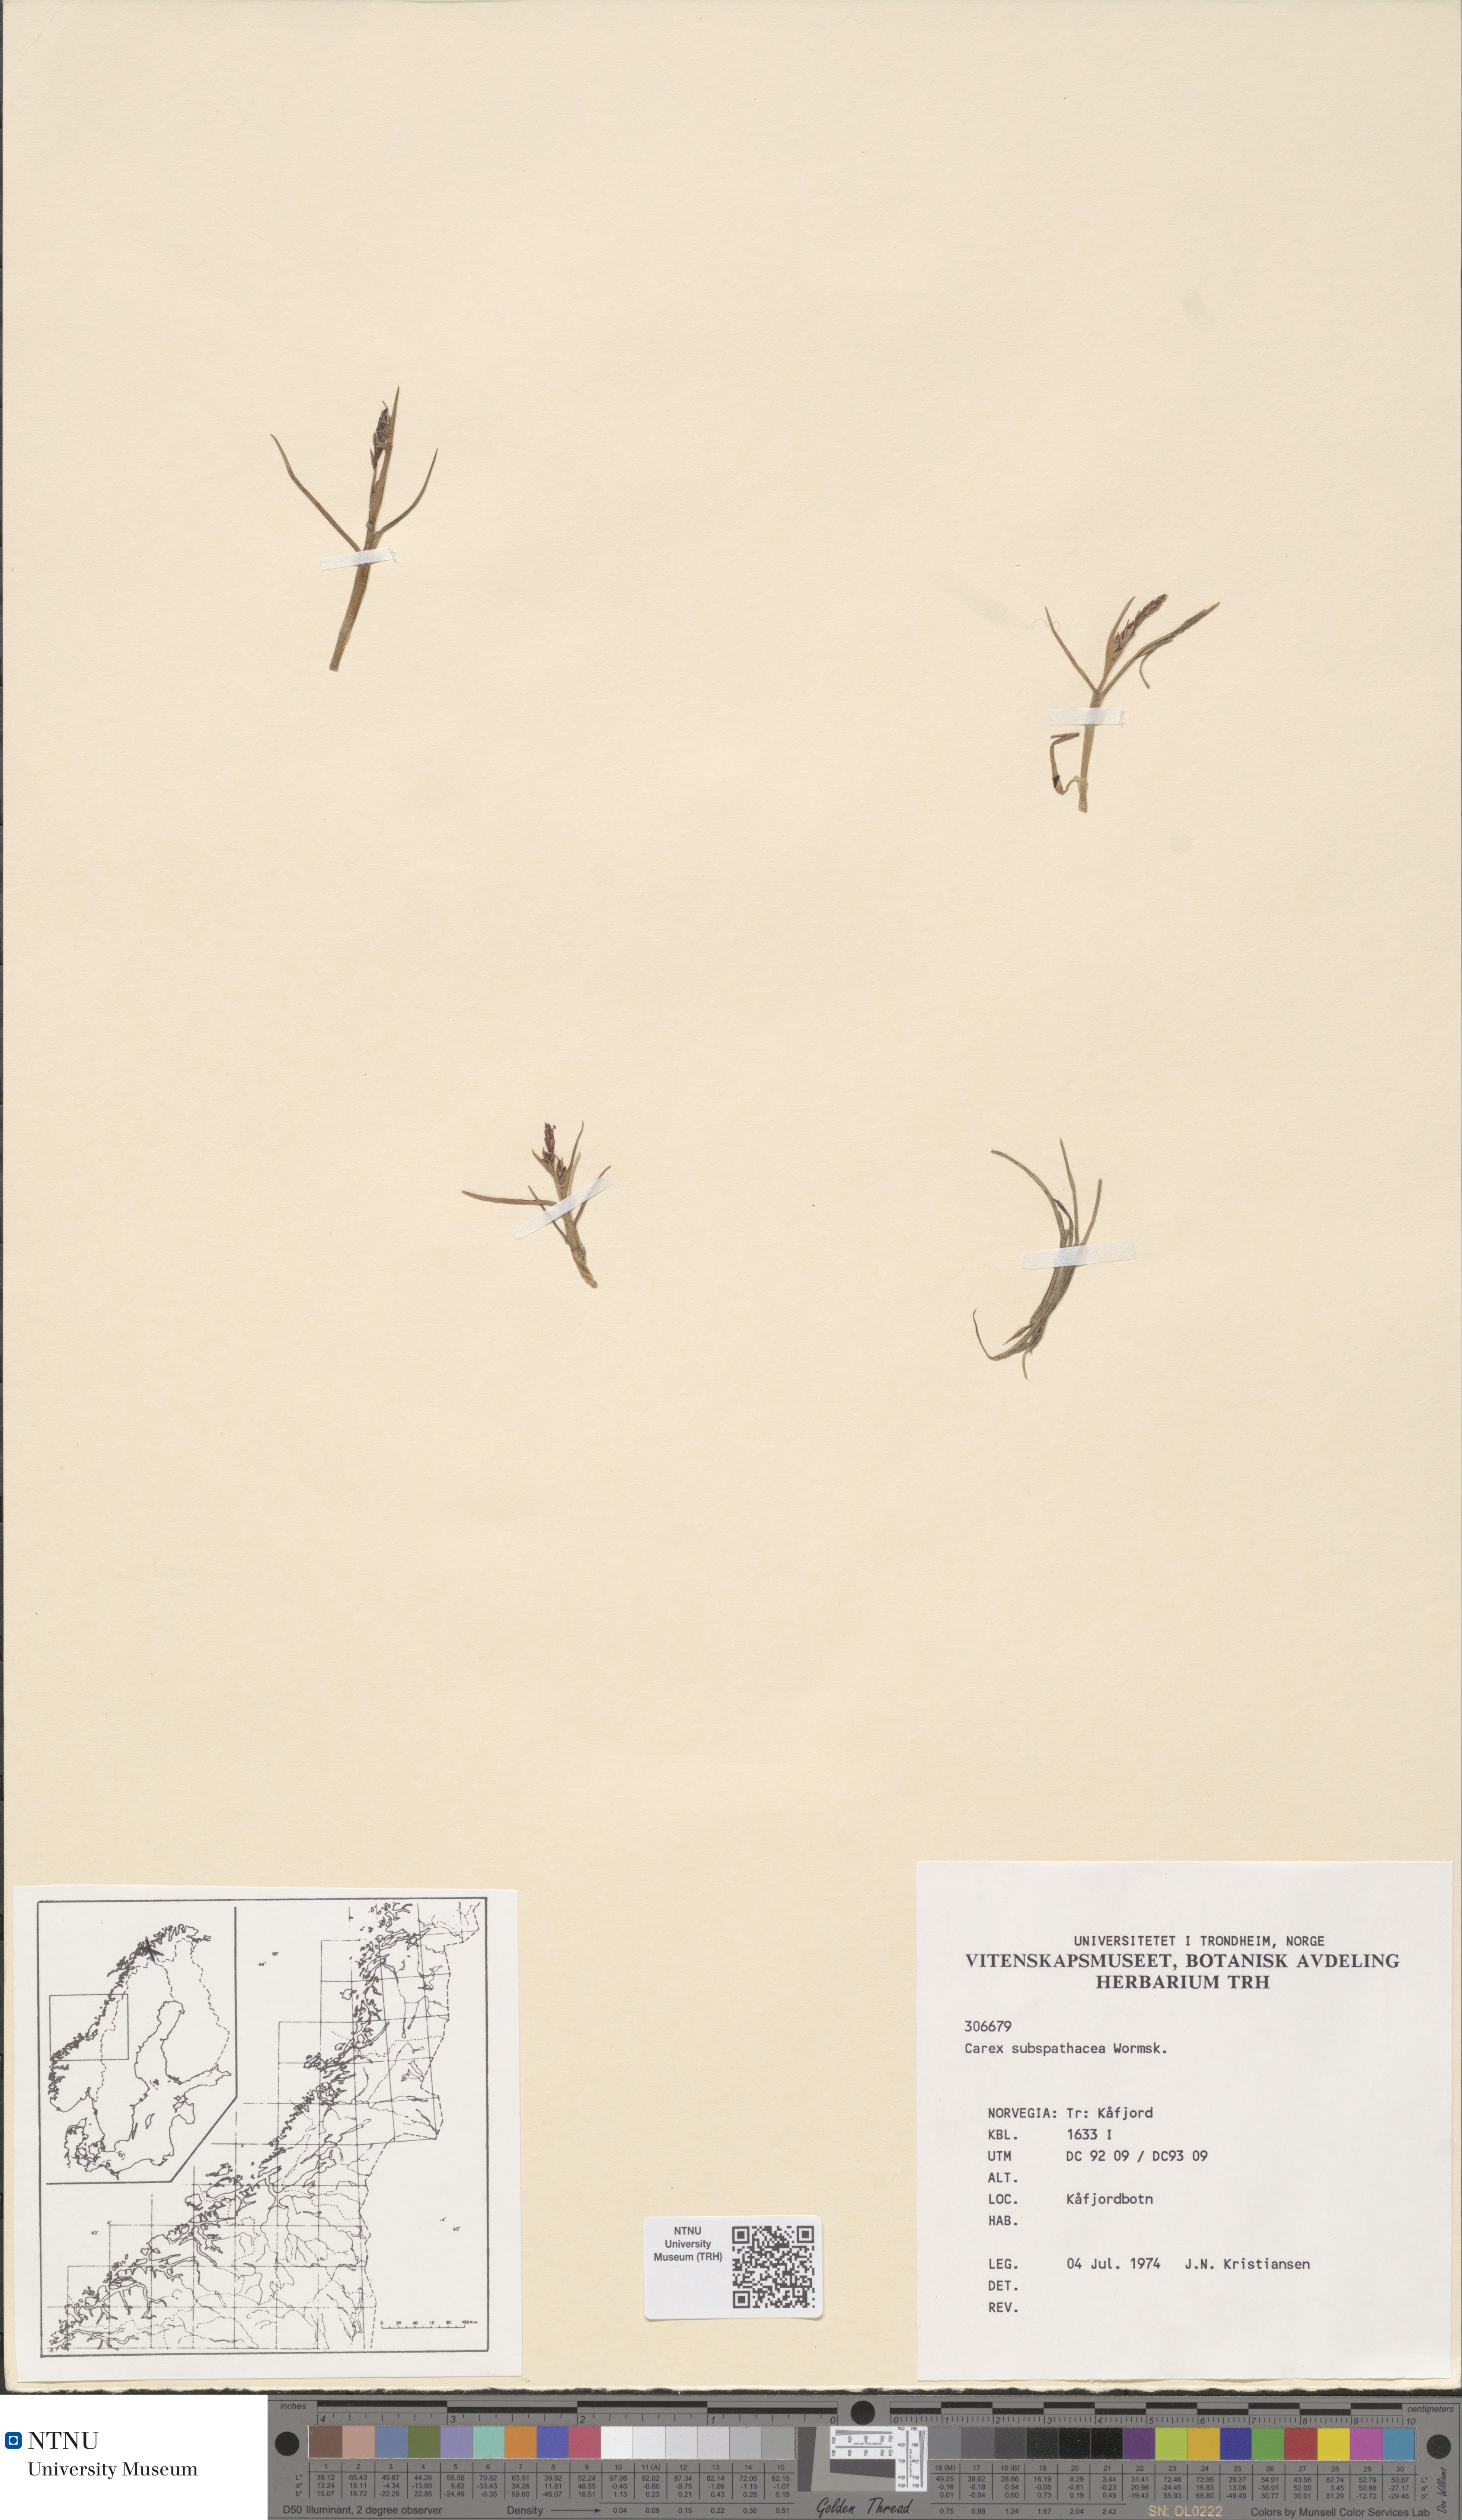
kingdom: Plantae
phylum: Tracheophyta
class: Liliopsida
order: Poales
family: Cyperaceae
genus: Carex
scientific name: Carex subspathacea
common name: Hoppner's sedge
